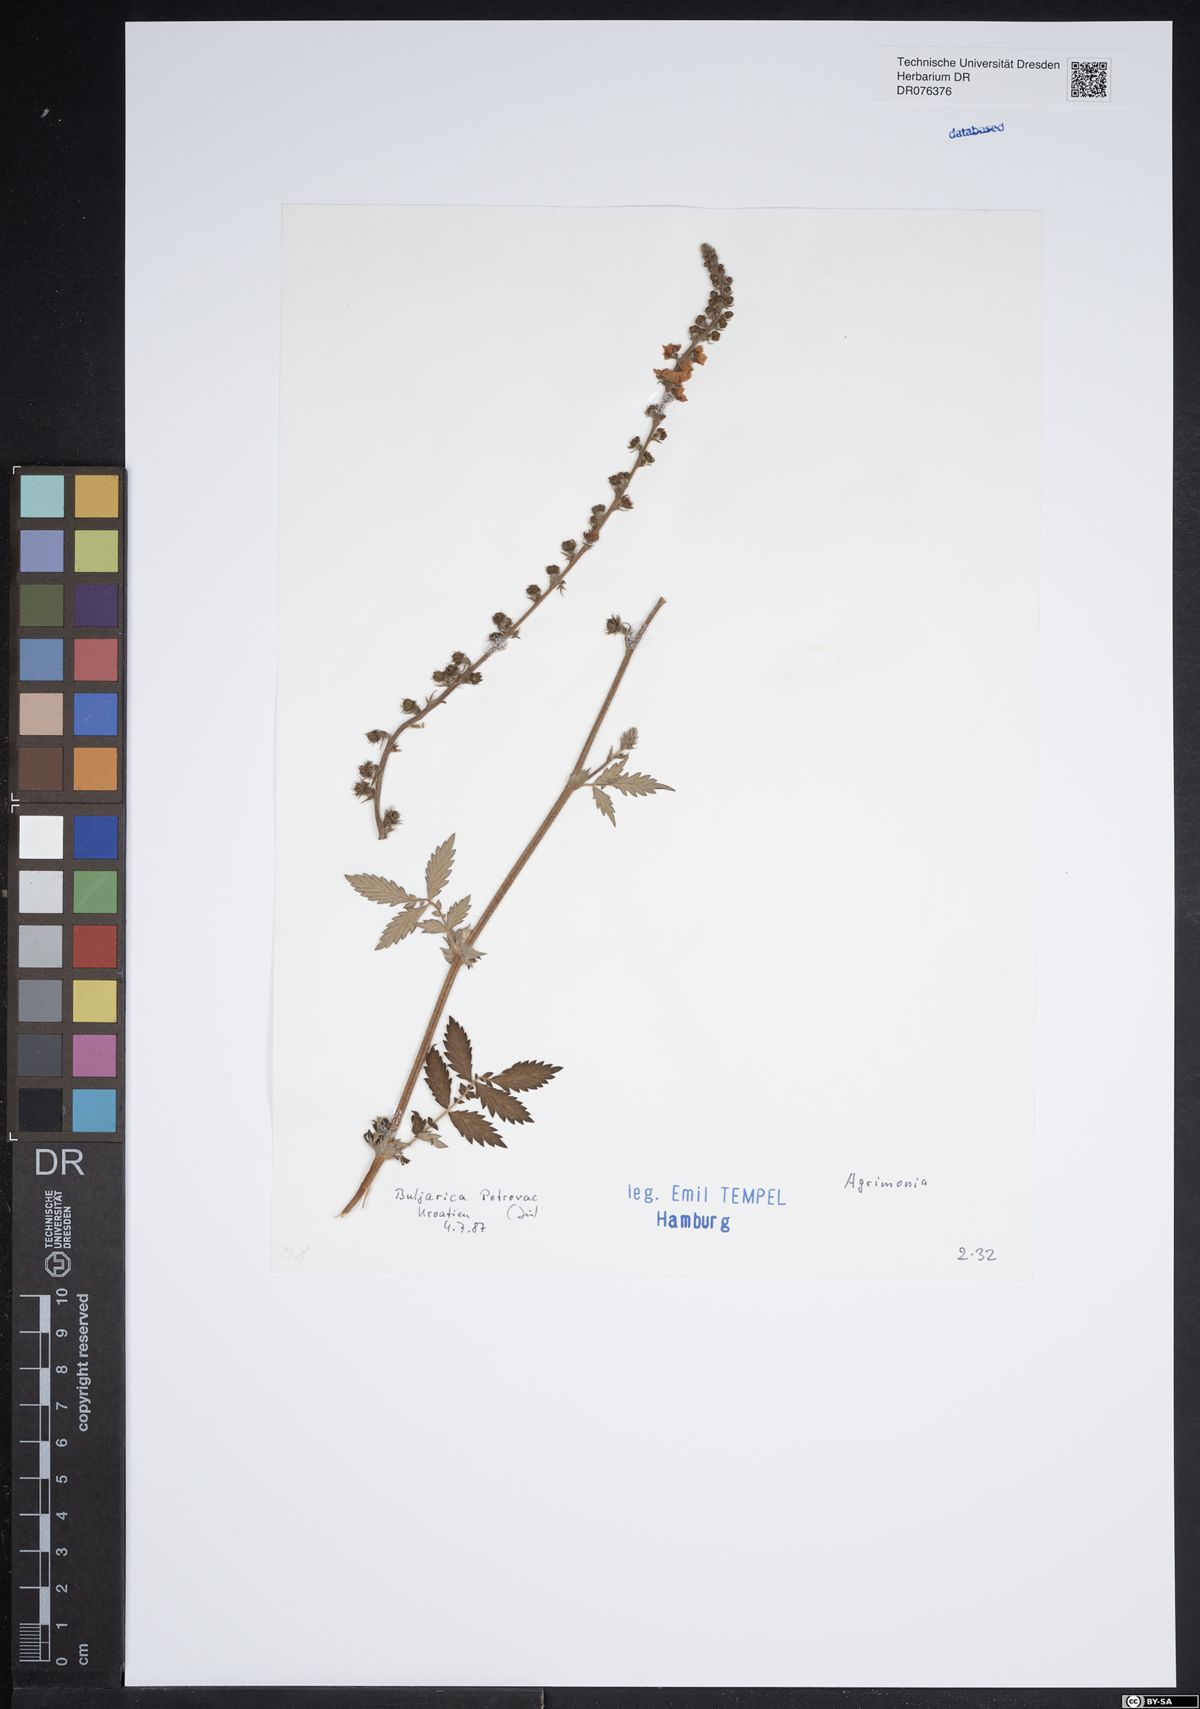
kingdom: Plantae
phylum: Tracheophyta
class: Magnoliopsida
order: Rosales
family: Rosaceae
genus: Agrimonia
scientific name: Agrimonia
